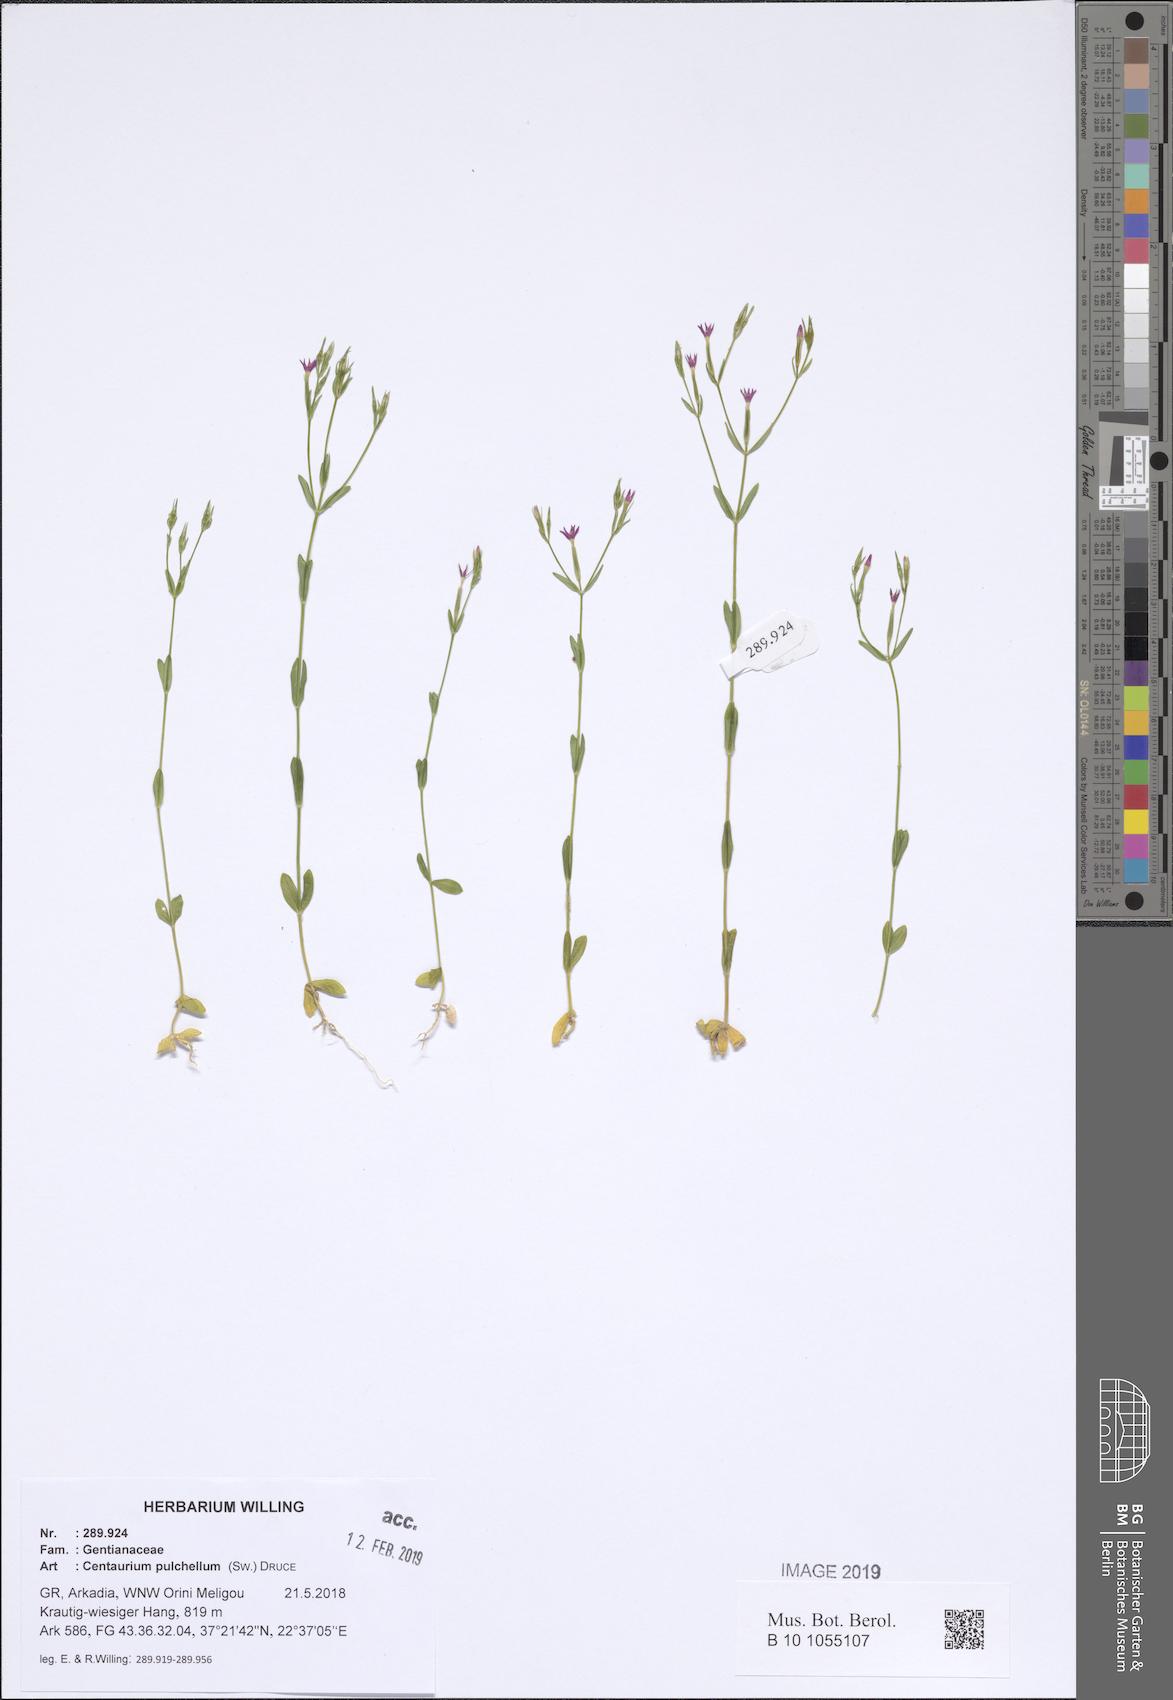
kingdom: Plantae
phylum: Tracheophyta
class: Magnoliopsida
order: Gentianales
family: Gentianaceae
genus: Centaurium
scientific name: Centaurium pulchellum
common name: Lesser centaury
